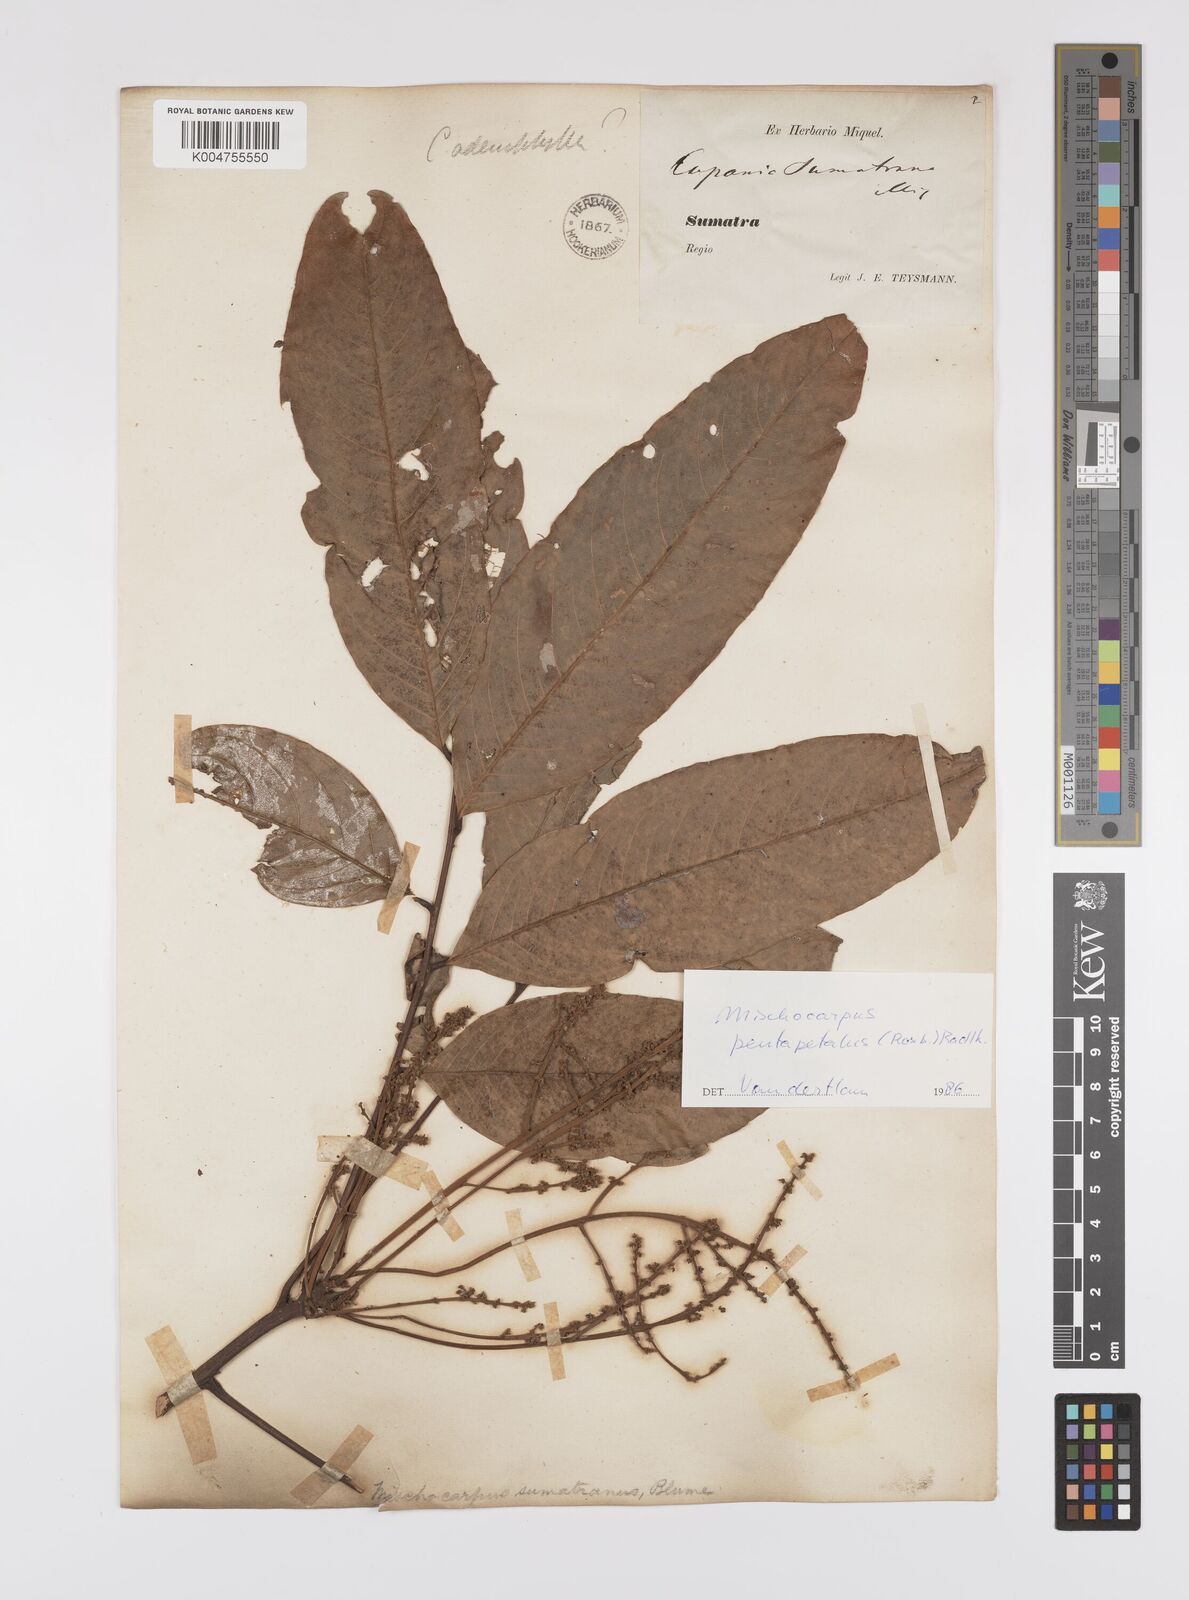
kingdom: Plantae
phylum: Tracheophyta
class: Magnoliopsida
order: Sapindales
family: Sapindaceae
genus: Mischocarpus
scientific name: Mischocarpus pentapetalus
